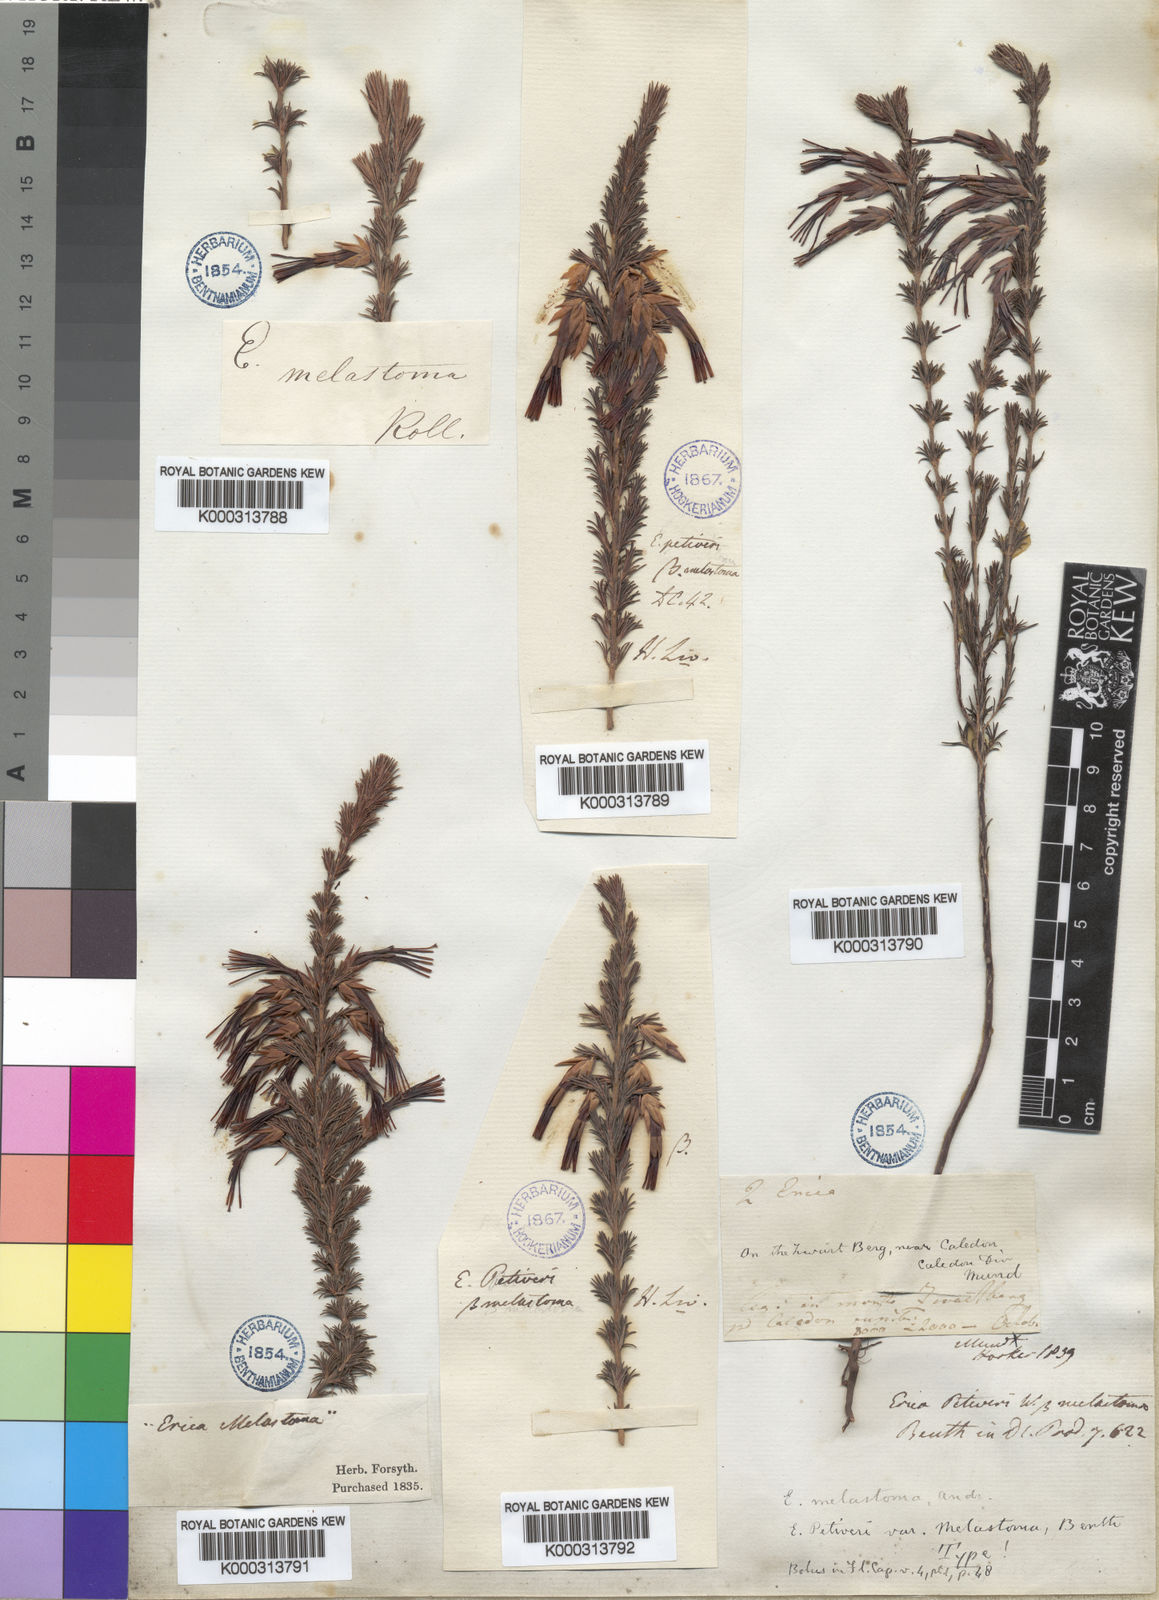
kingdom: Plantae
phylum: Tracheophyta
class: Magnoliopsida
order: Ericales
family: Ericaceae
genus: Erica
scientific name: Erica
